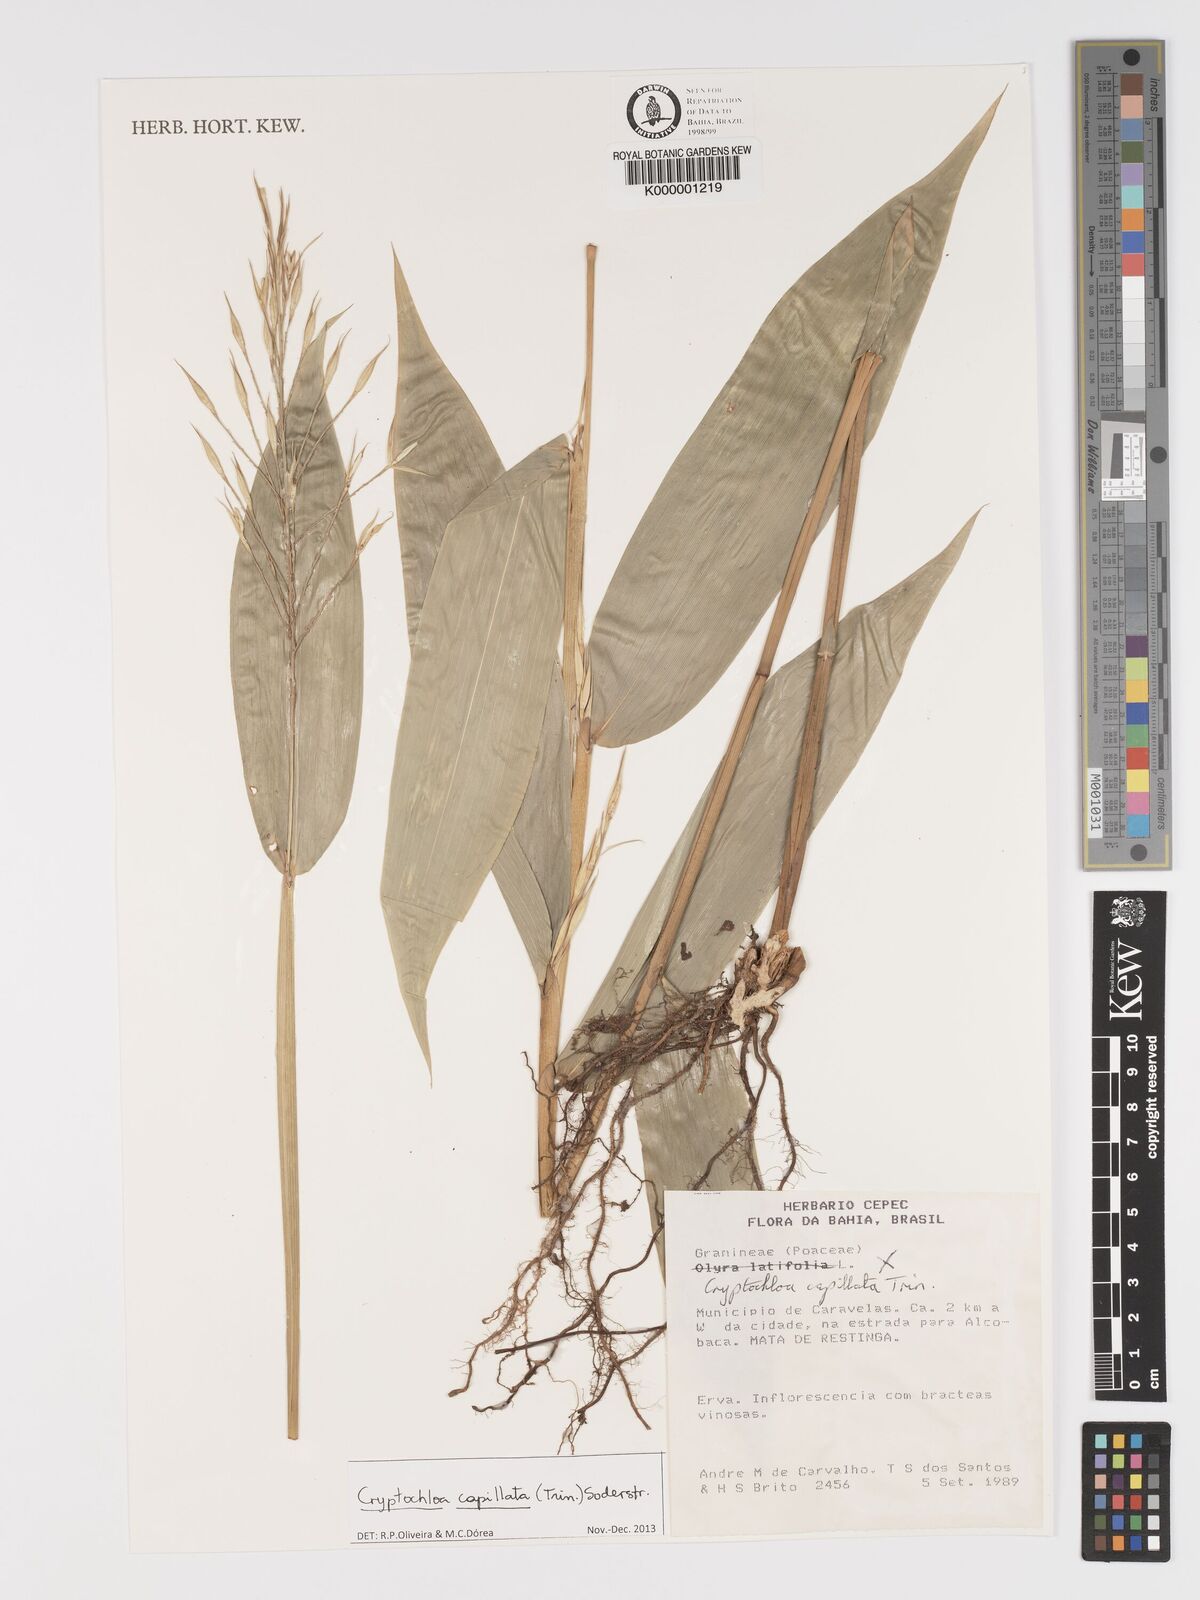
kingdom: Plantae
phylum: Tracheophyta
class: Liliopsida
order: Poales
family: Poaceae
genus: Cryptochloa
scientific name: Cryptochloa capillata
